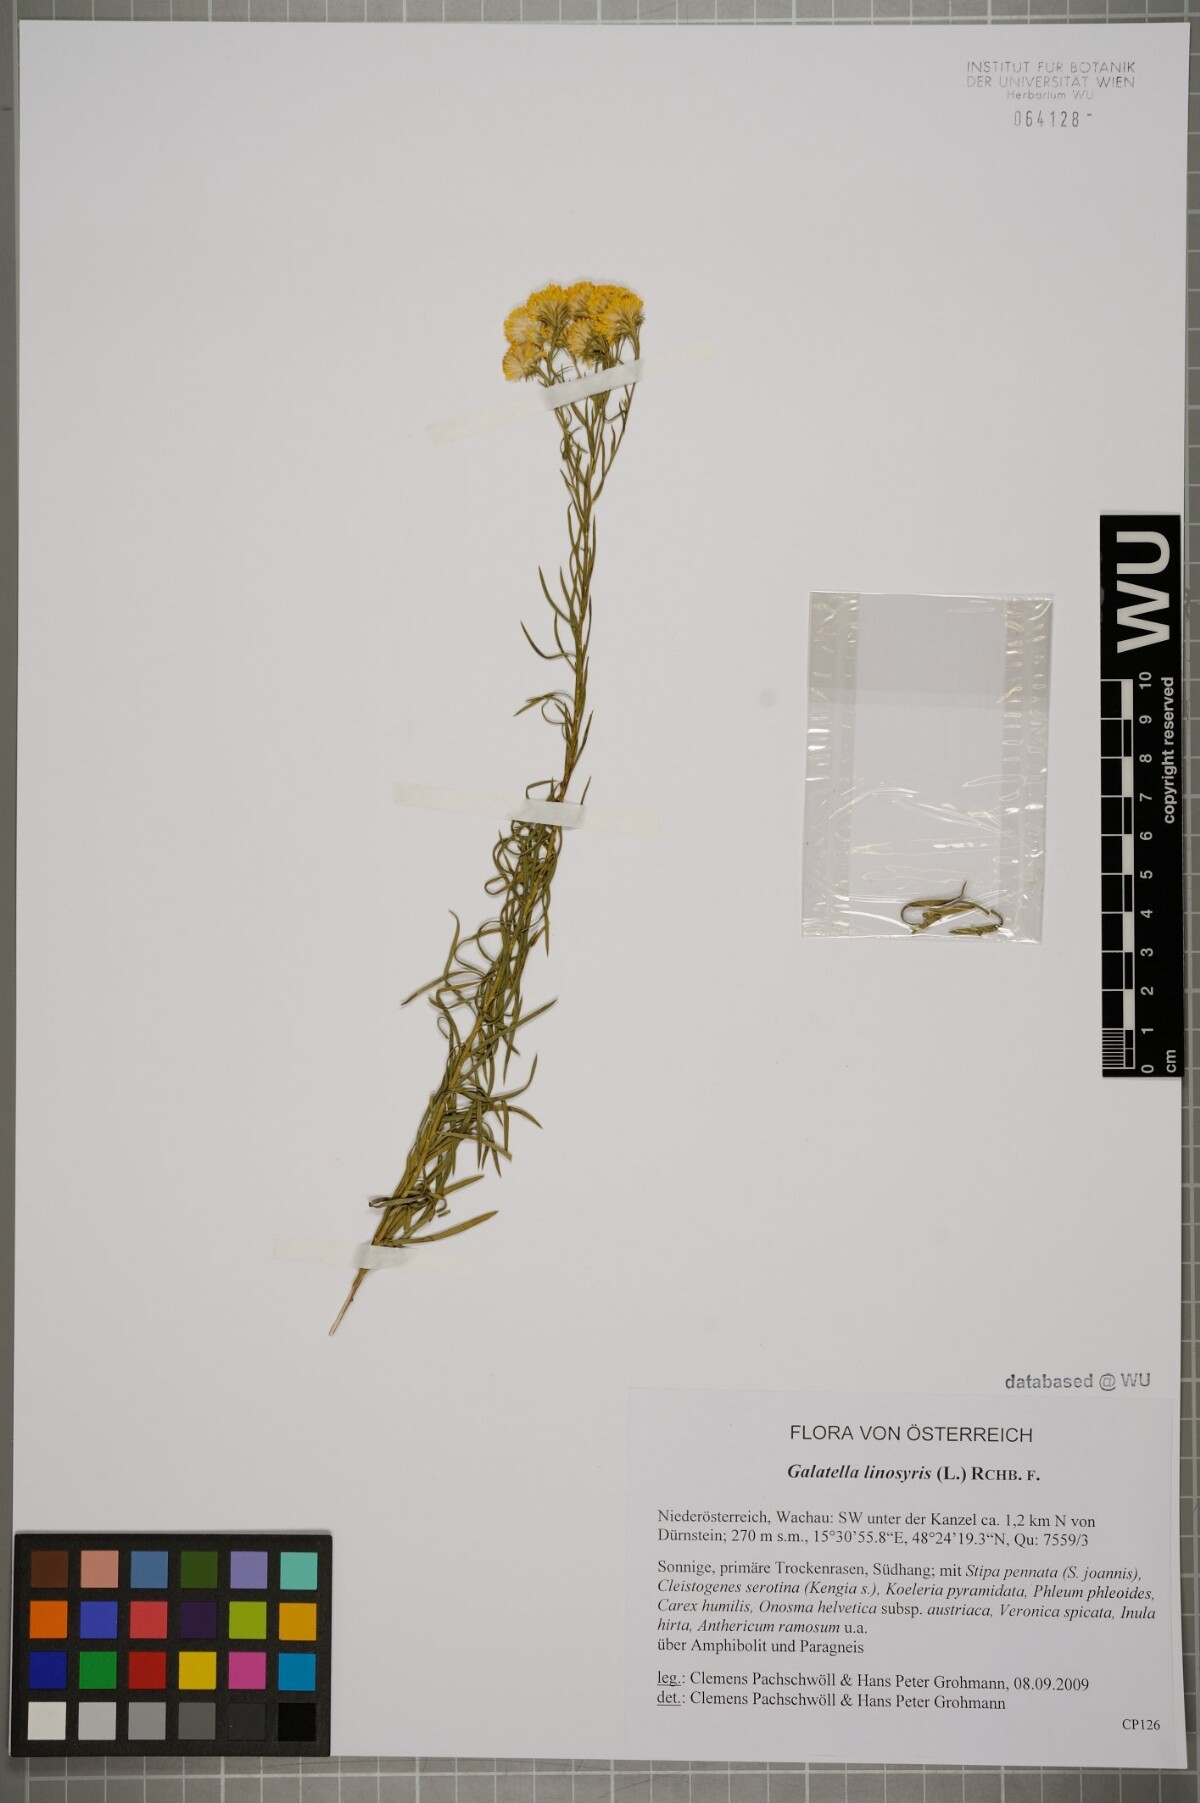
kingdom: Plantae
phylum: Tracheophyta
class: Magnoliopsida
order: Asterales
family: Asteraceae
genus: Galatella
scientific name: Galatella linosyris
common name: Goldilocks aster
